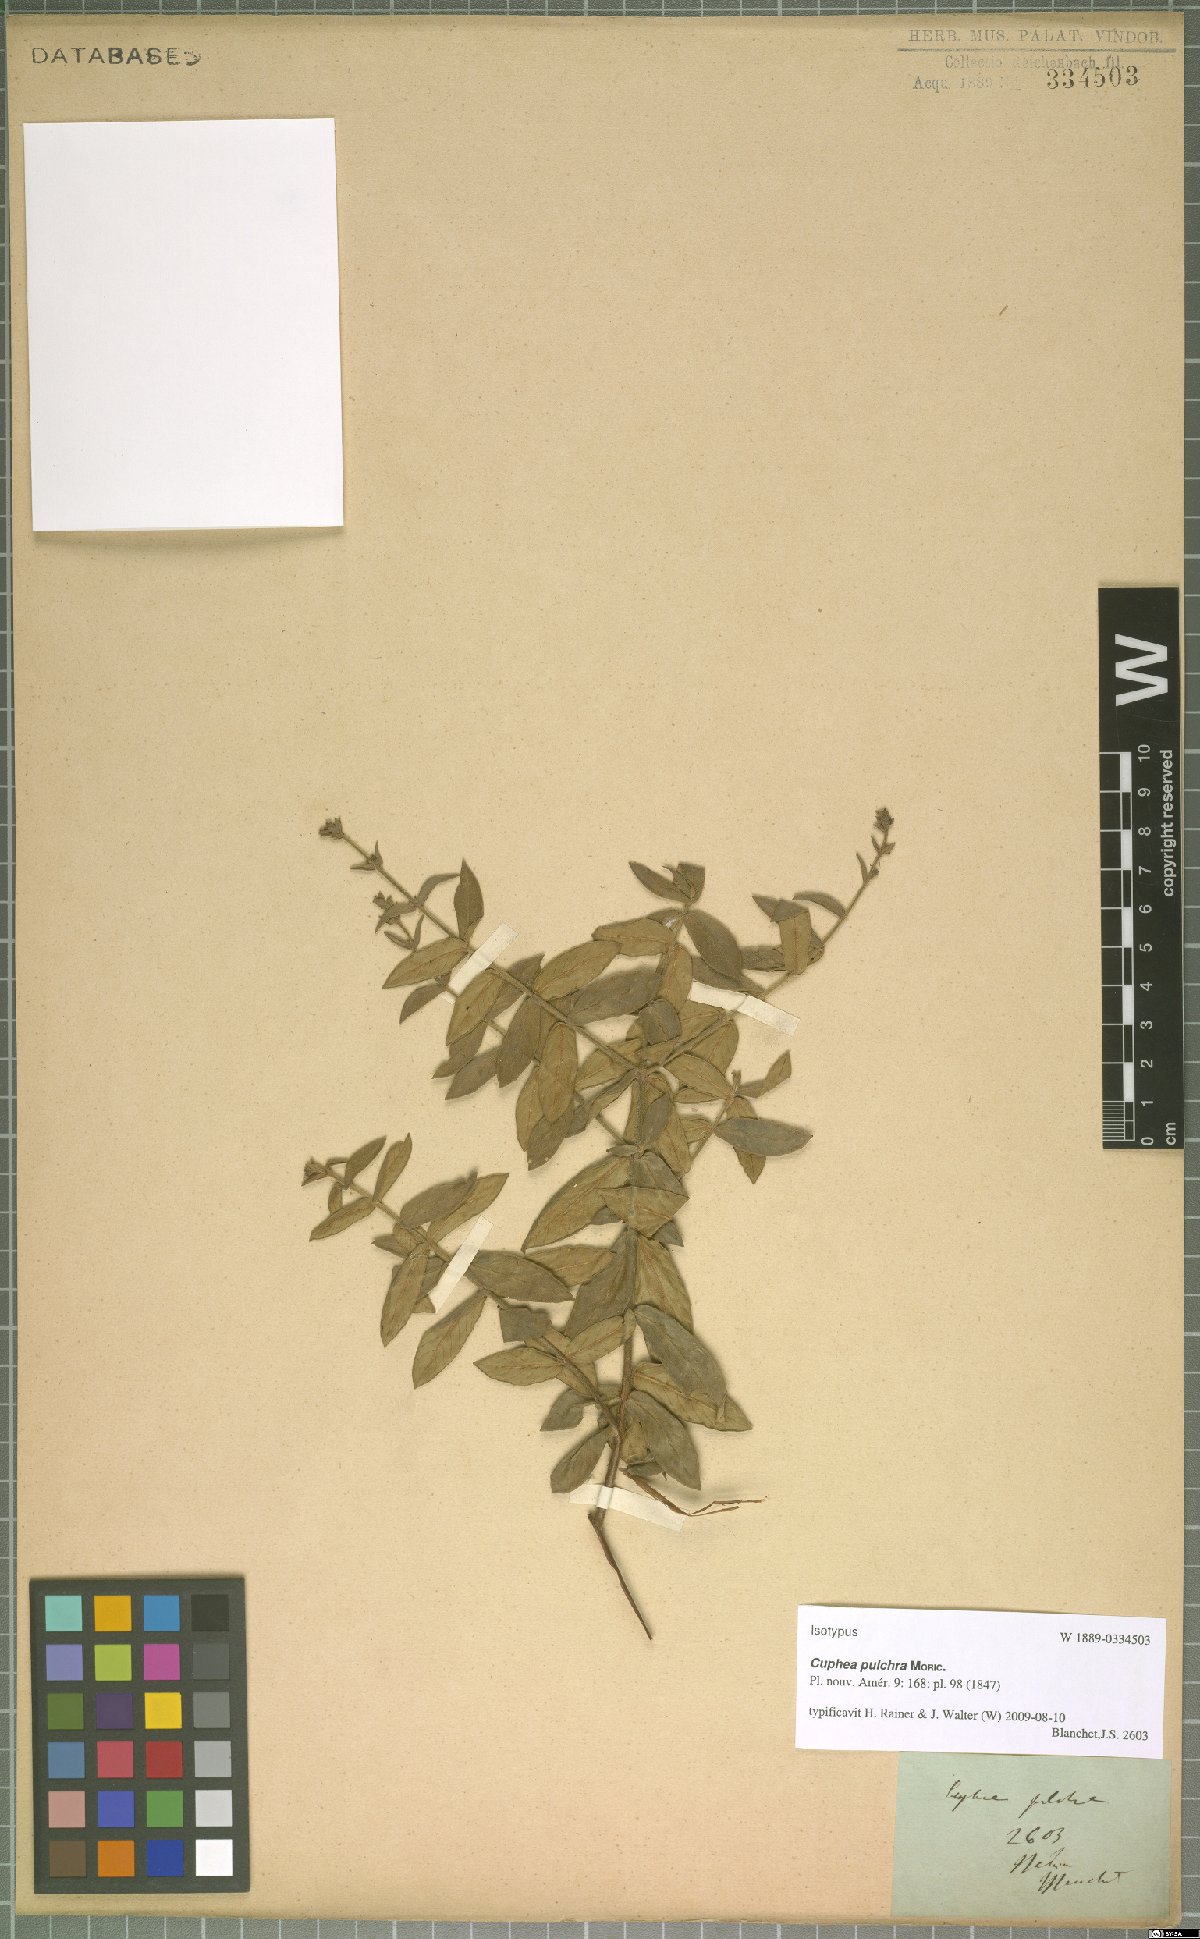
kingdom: Plantae
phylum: Tracheophyta
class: Magnoliopsida
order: Myrtales
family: Lythraceae
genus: Cuphea
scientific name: Cuphea pulchra
